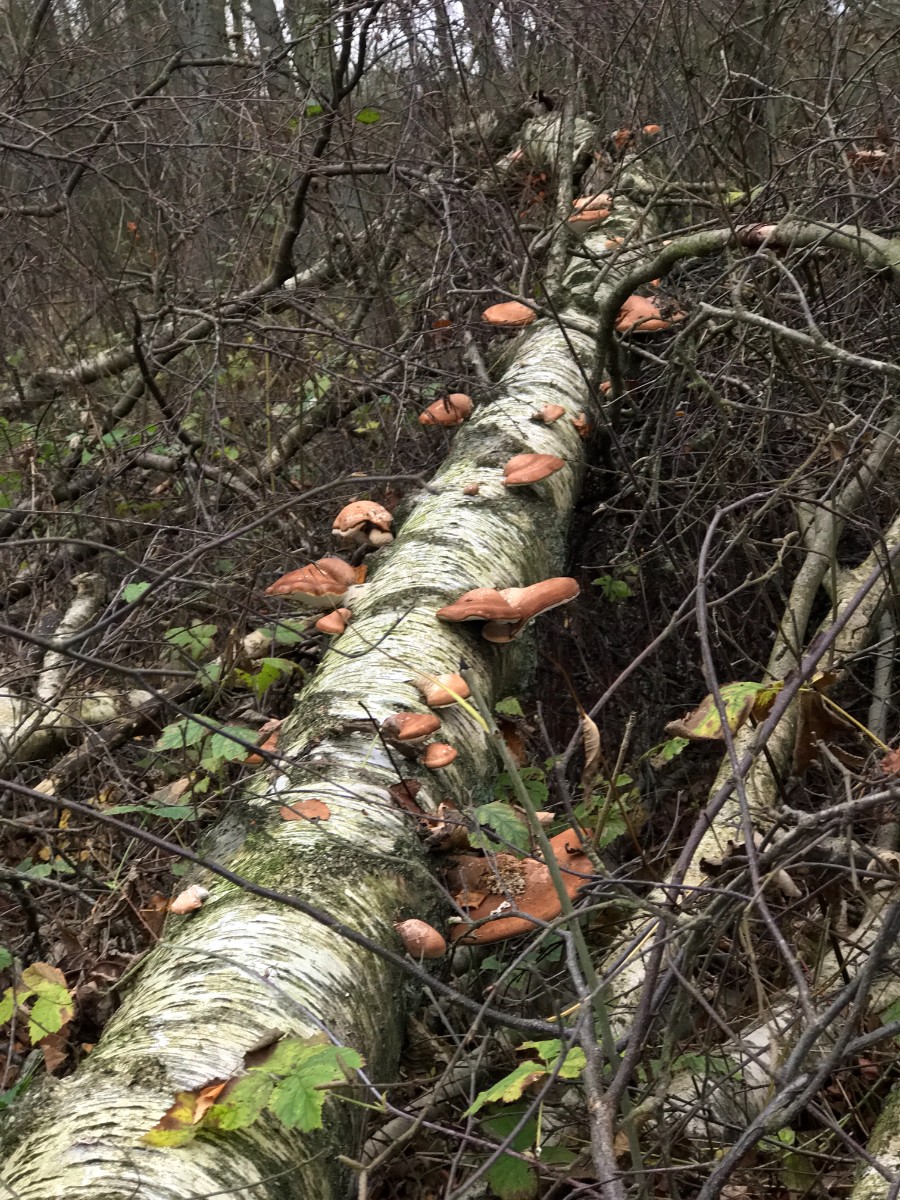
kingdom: Fungi
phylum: Basidiomycota
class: Agaricomycetes
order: Polyporales
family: Fomitopsidaceae
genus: Fomitopsis
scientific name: Fomitopsis betulina
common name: birkeporesvamp
